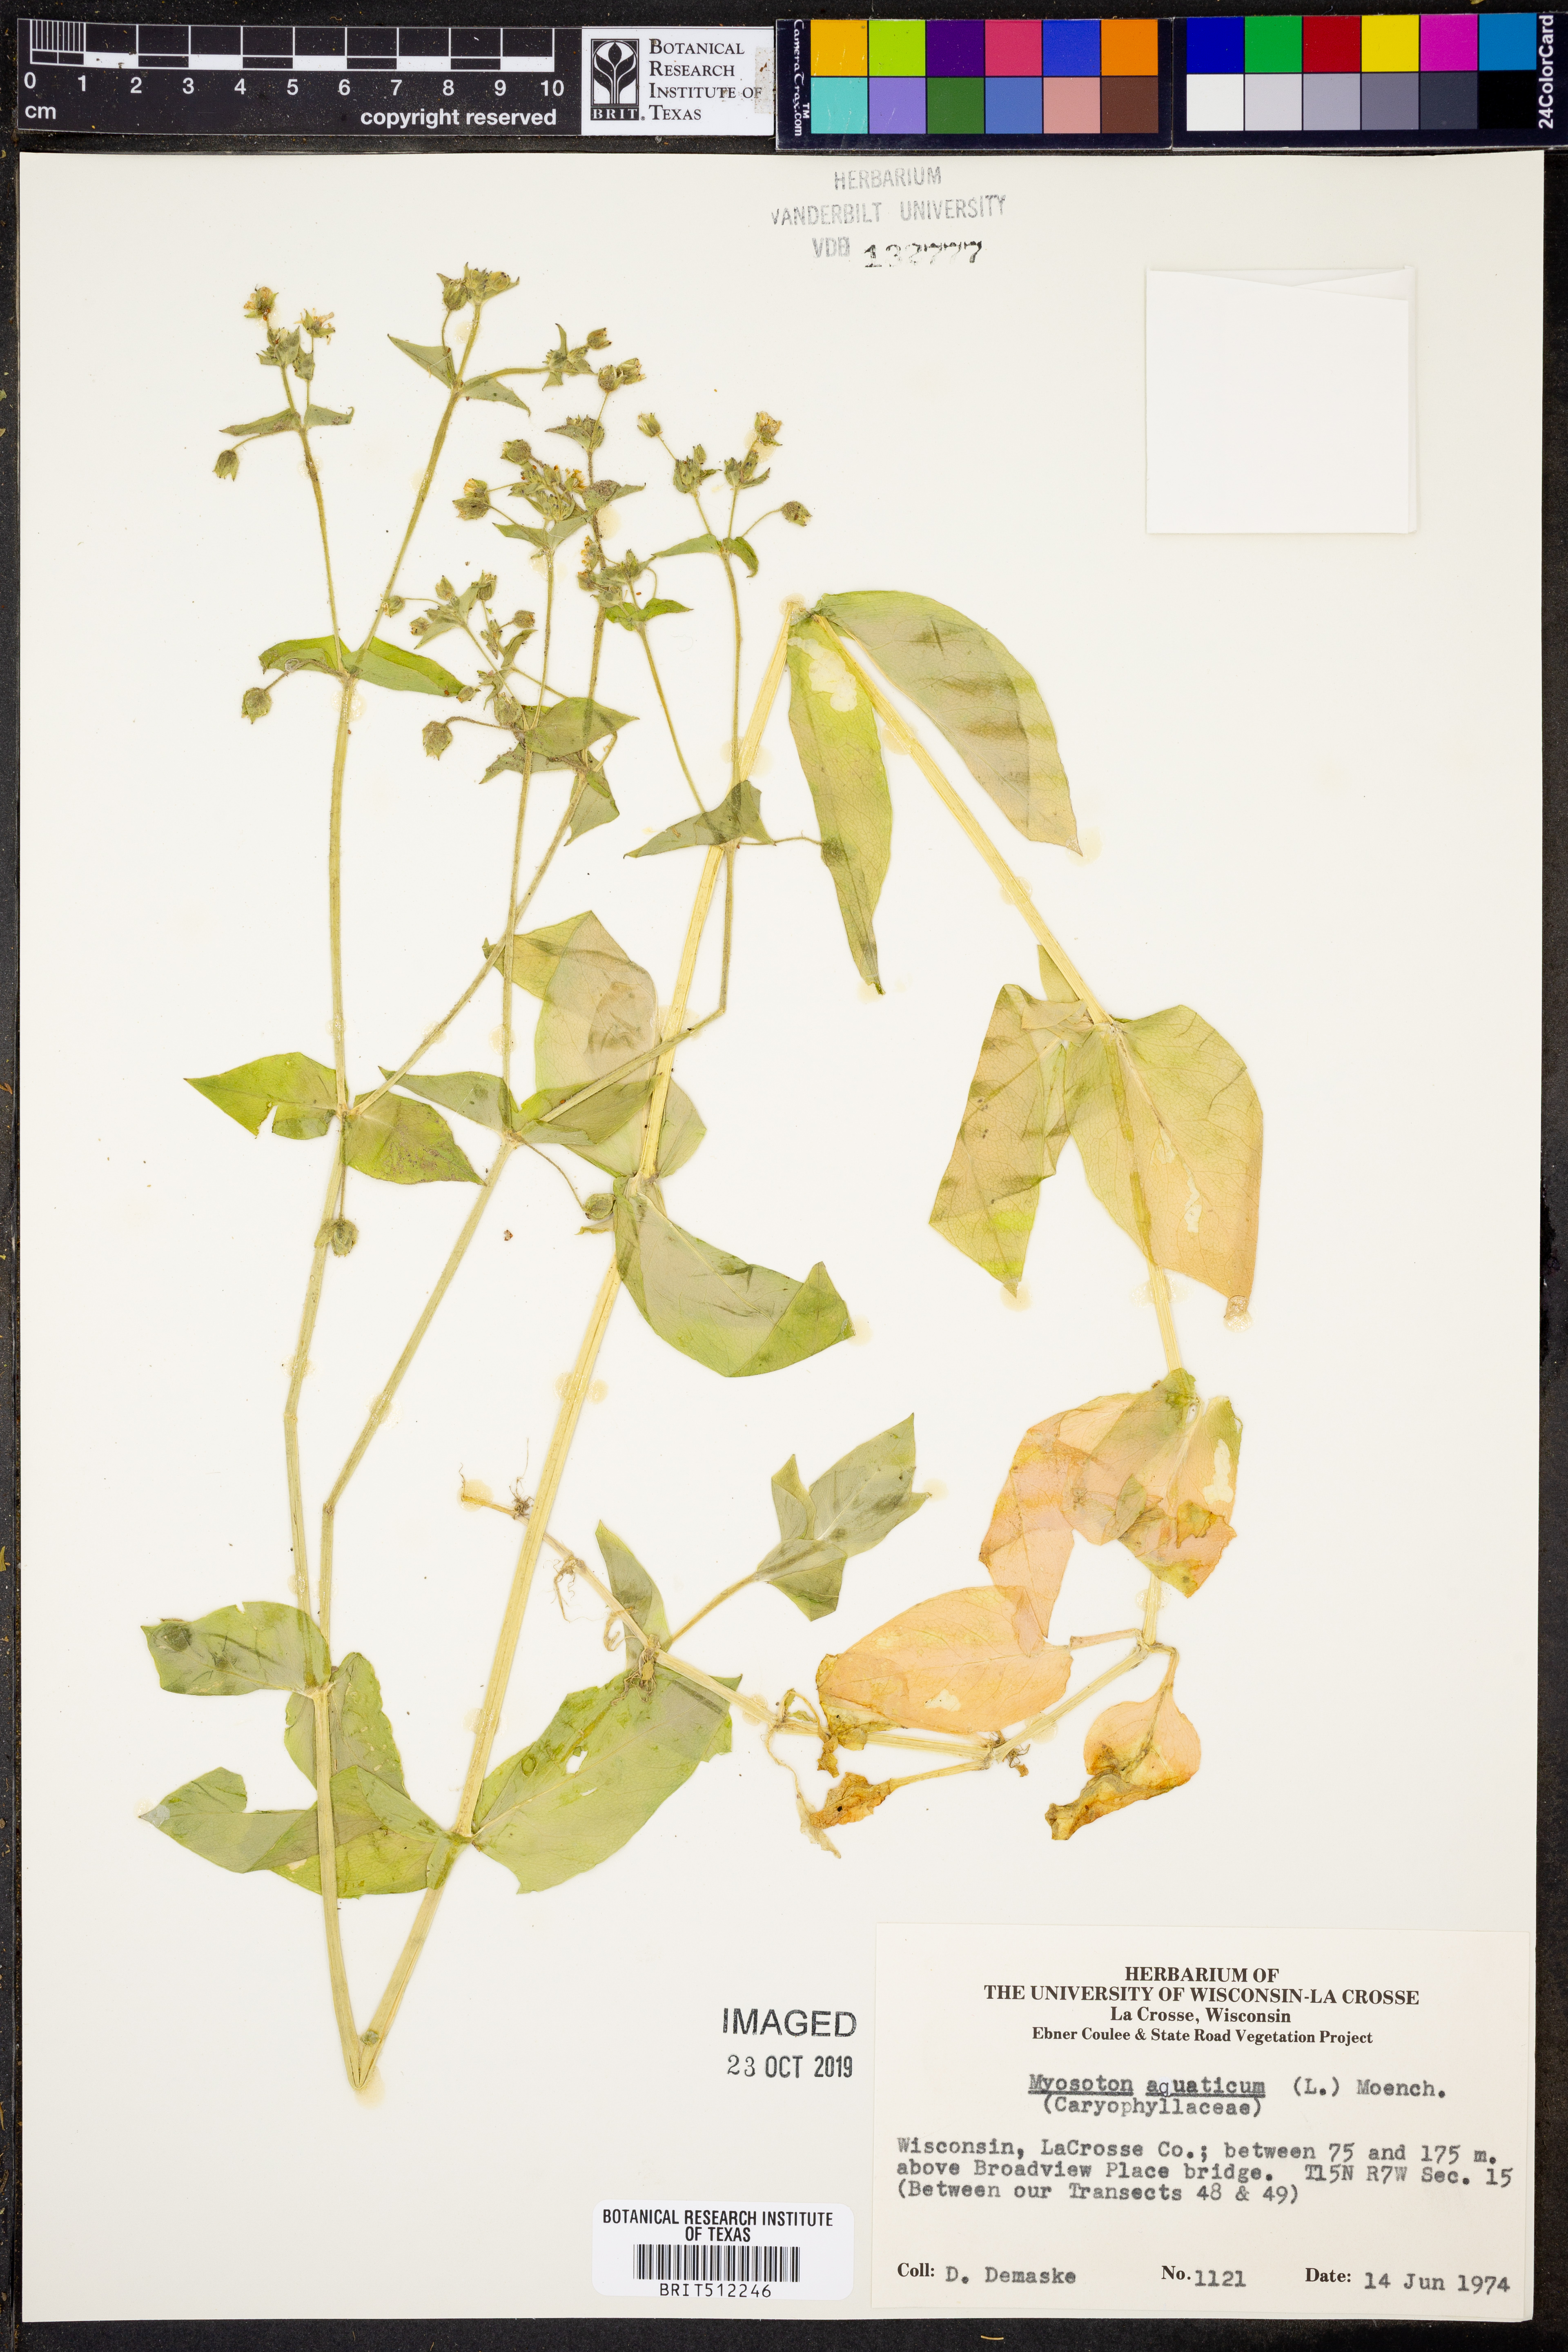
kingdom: Plantae
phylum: Tracheophyta
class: Magnoliopsida
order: Caryophyllales
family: Caryophyllaceae
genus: Stellaria
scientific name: Stellaria aquatica
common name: Water chickweed
